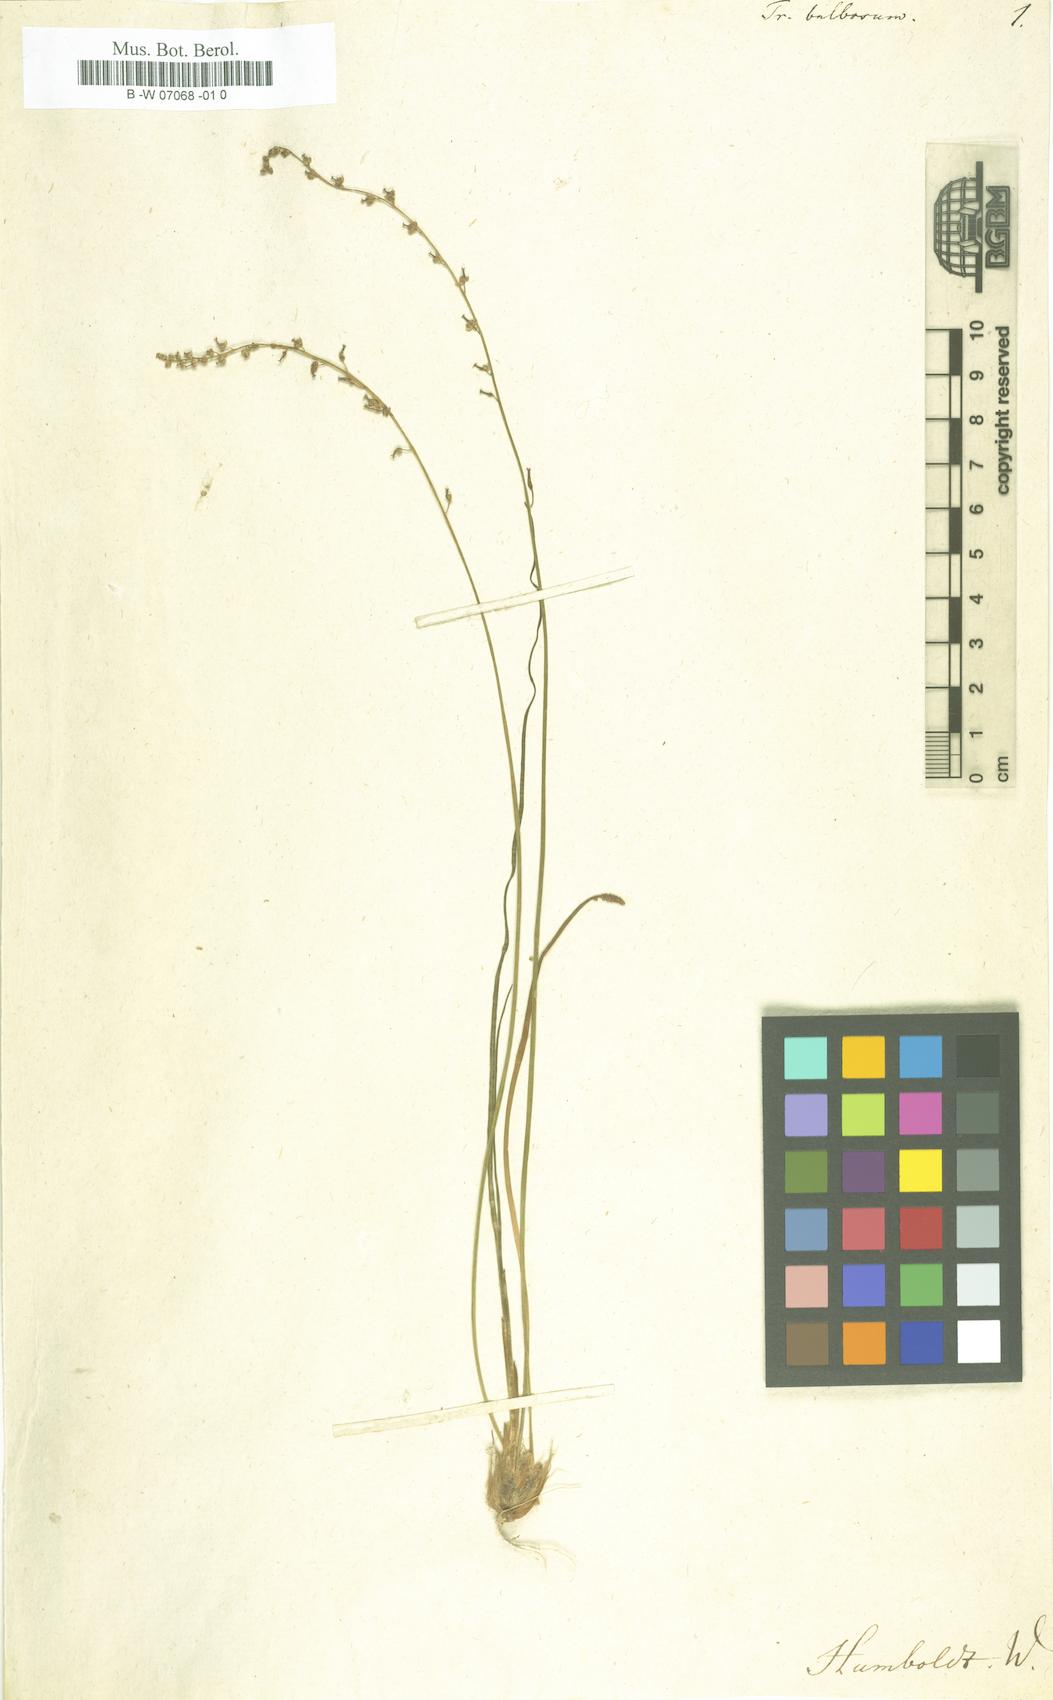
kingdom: Plantae
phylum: Tracheophyta
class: Liliopsida
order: Alismatales
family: Juncaginaceae
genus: Triglochin
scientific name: Triglochin bulbosa
